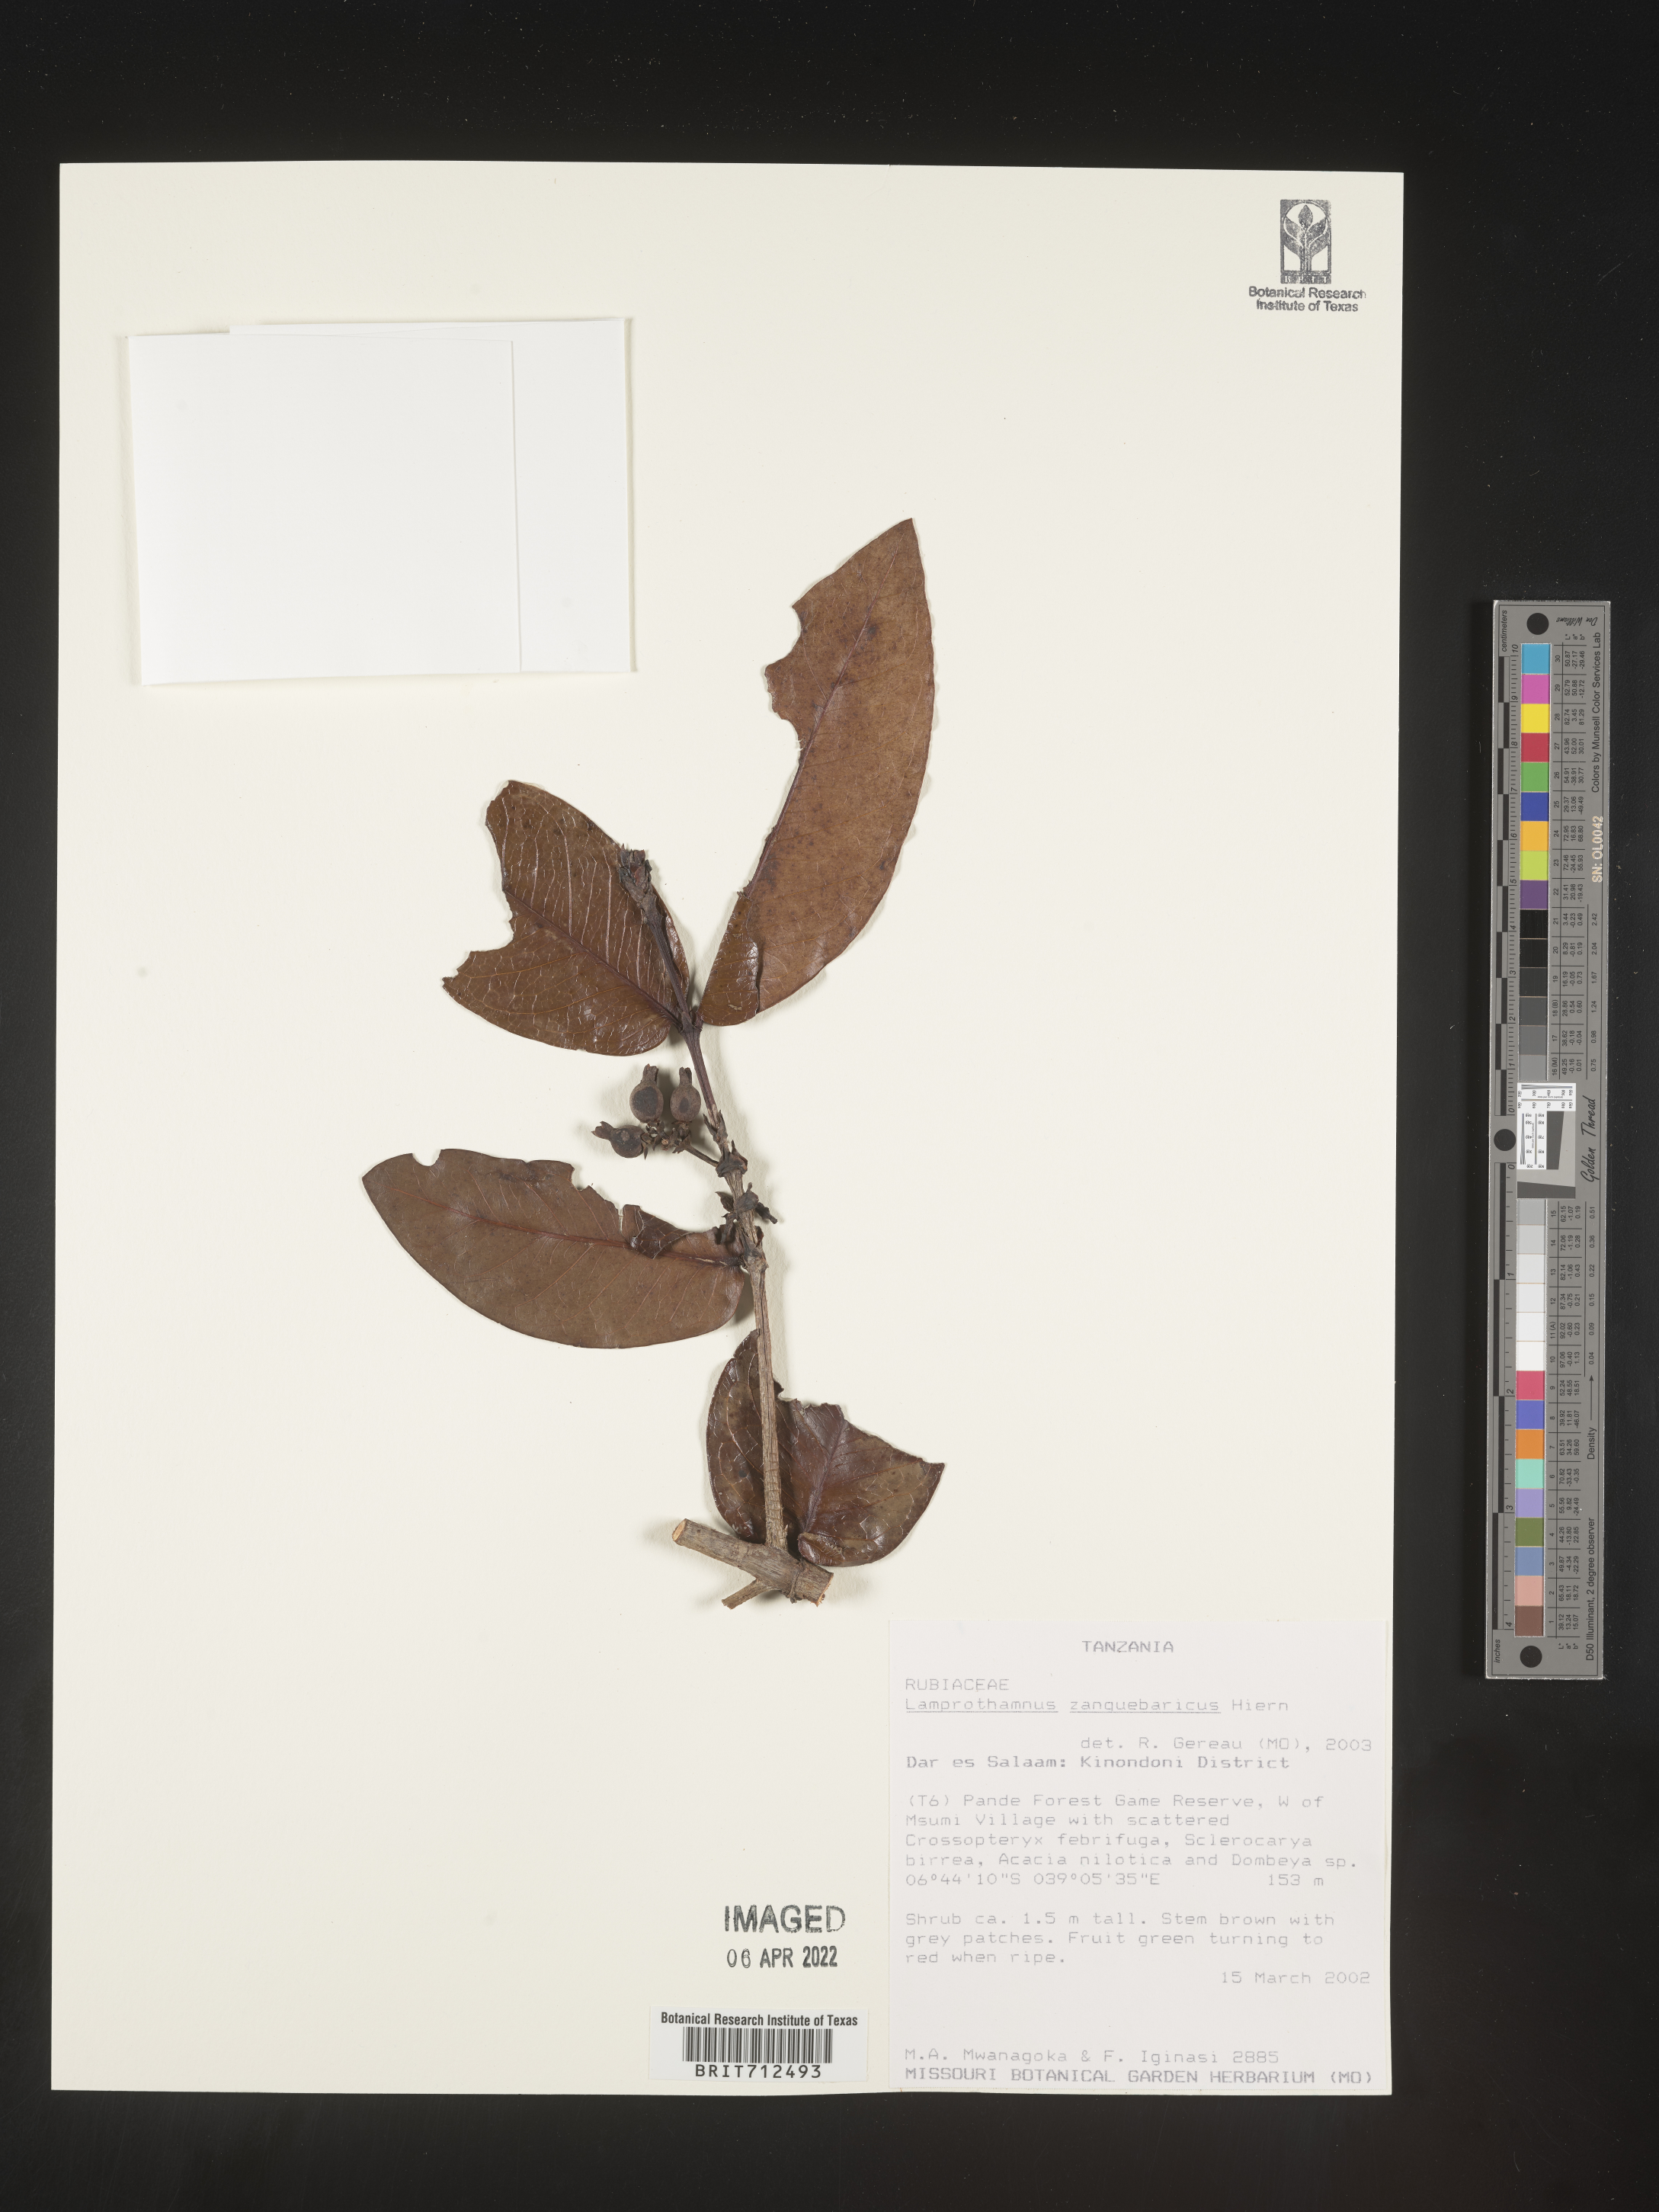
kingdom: Plantae
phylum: Tracheophyta
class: Magnoliopsida
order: Gentianales
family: Rubiaceae
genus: Lamprothamnus
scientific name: Lamprothamnus
